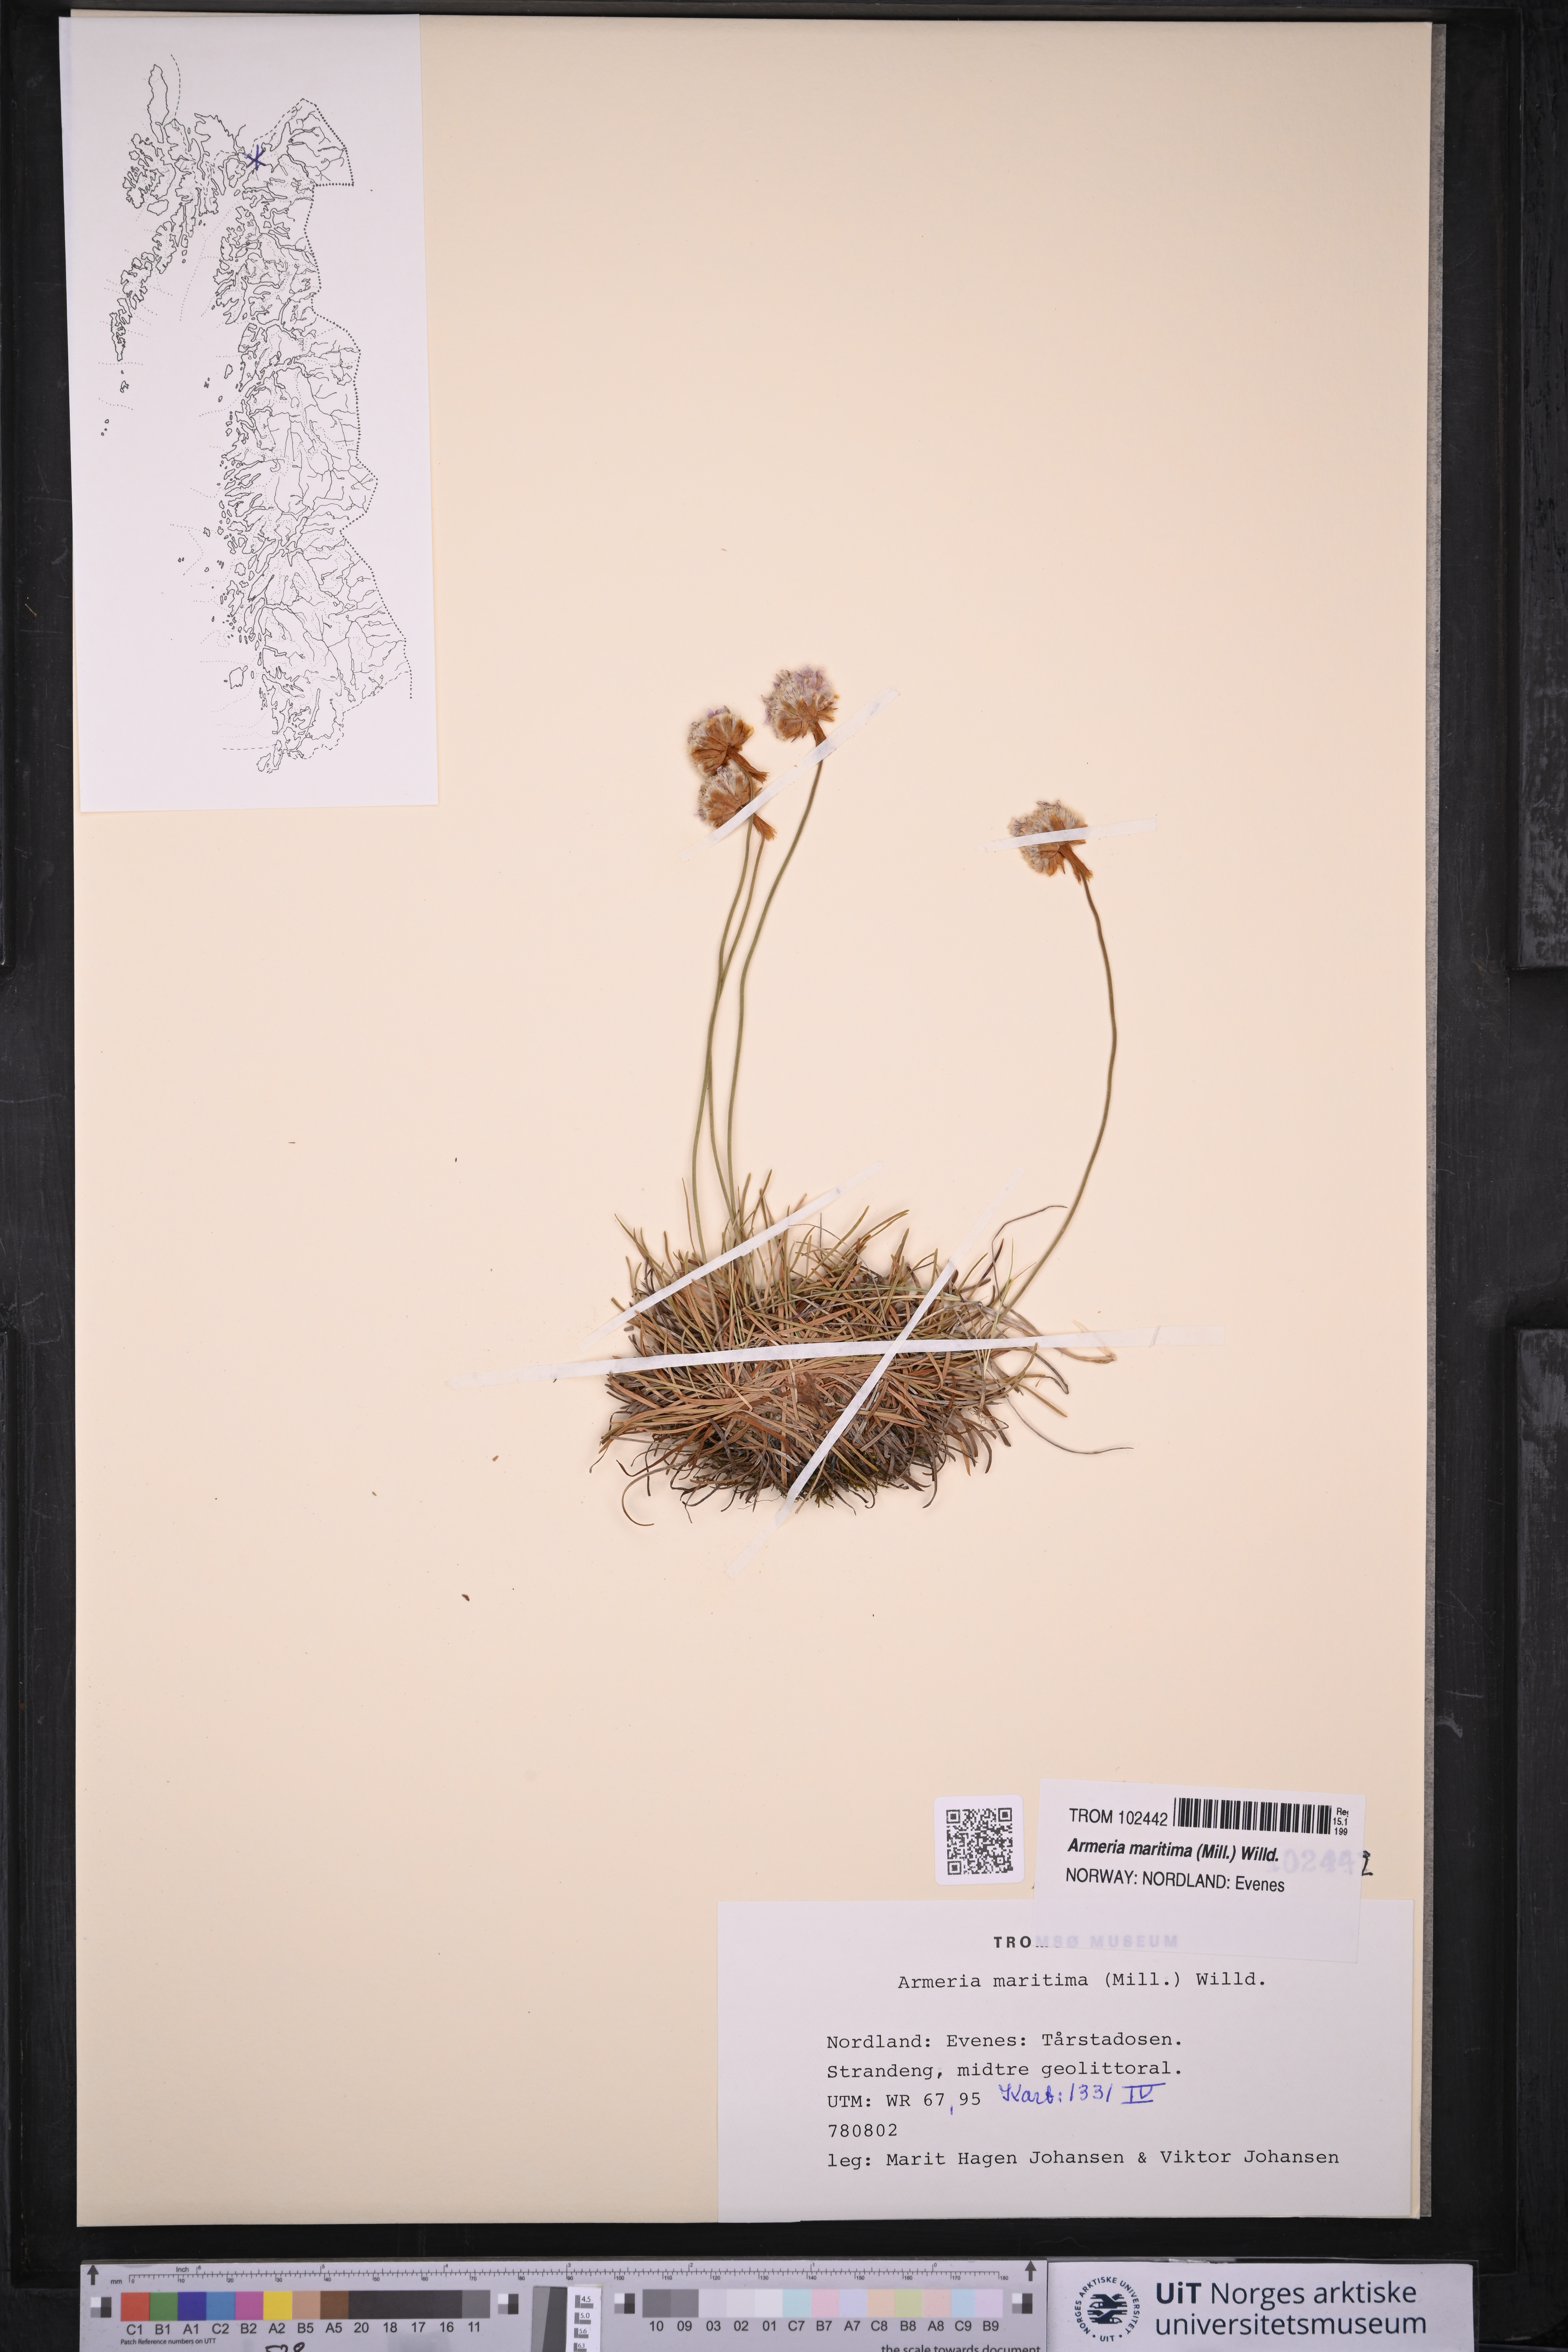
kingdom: Plantae
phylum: Tracheophyta
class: Magnoliopsida
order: Caryophyllales
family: Plumbaginaceae
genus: Armeria
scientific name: Armeria maritima
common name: Thrift
